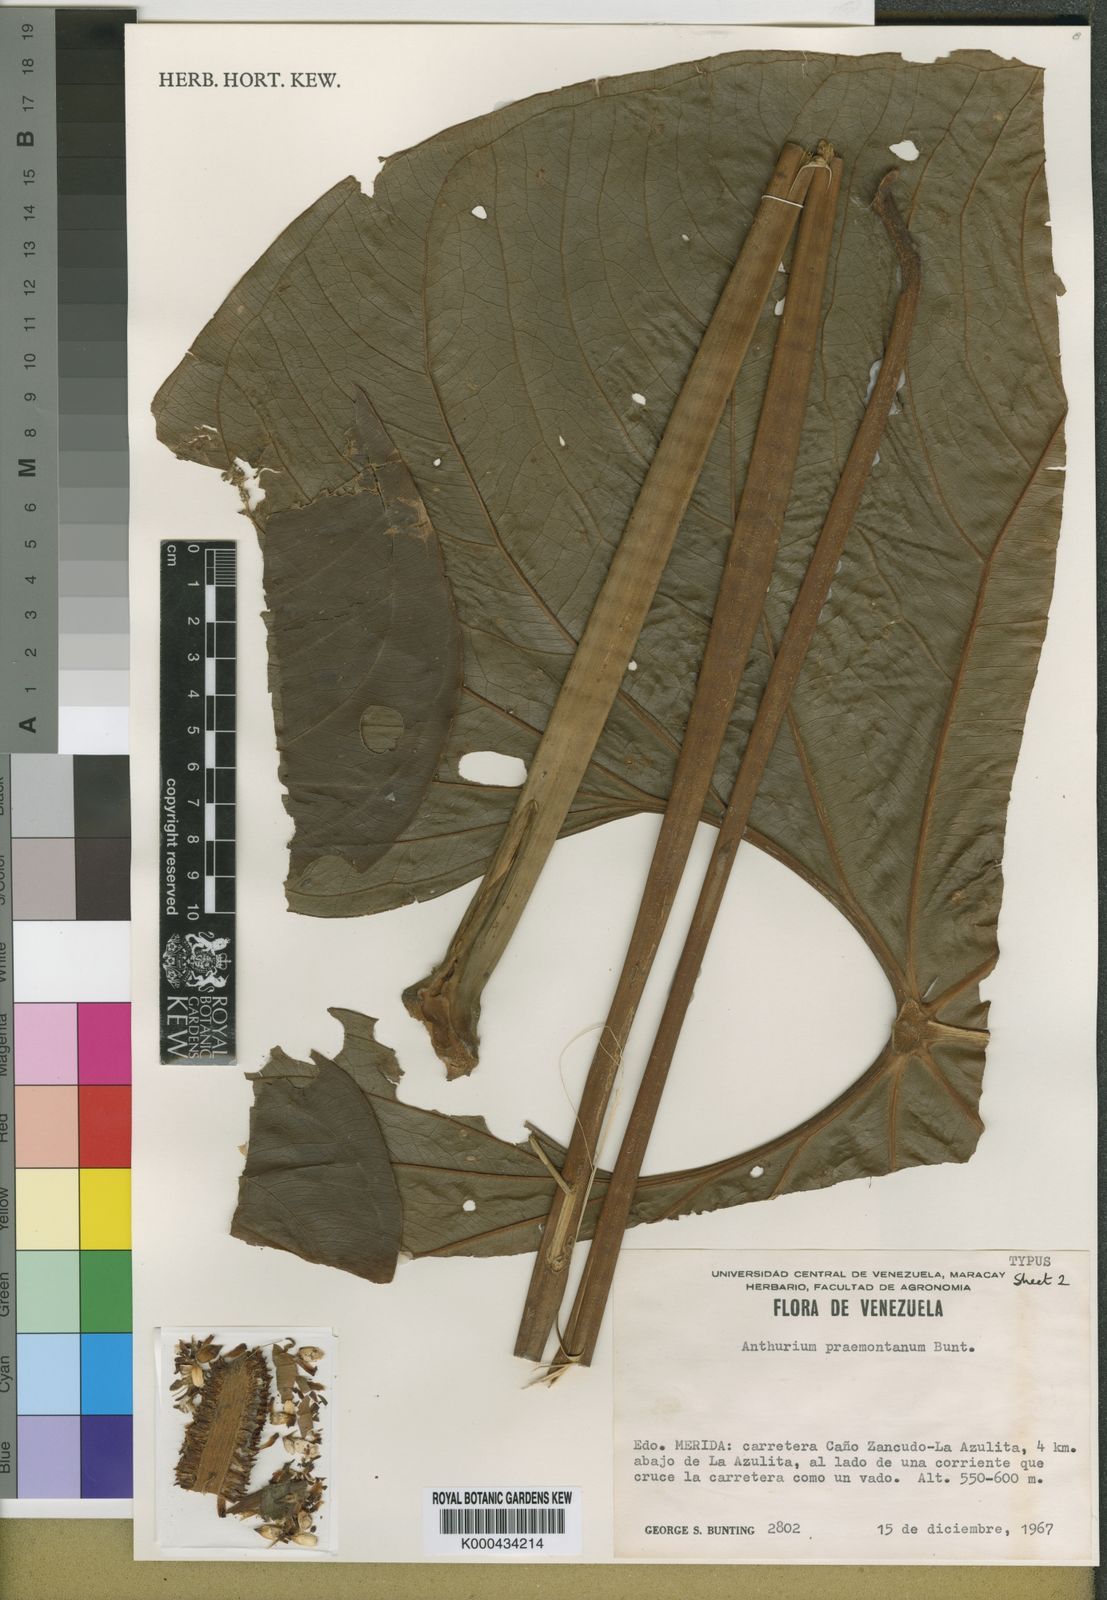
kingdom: Plantae
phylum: Tracheophyta
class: Liliopsida
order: Alismatales
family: Araceae
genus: Anthurium
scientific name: Anthurium formosum
